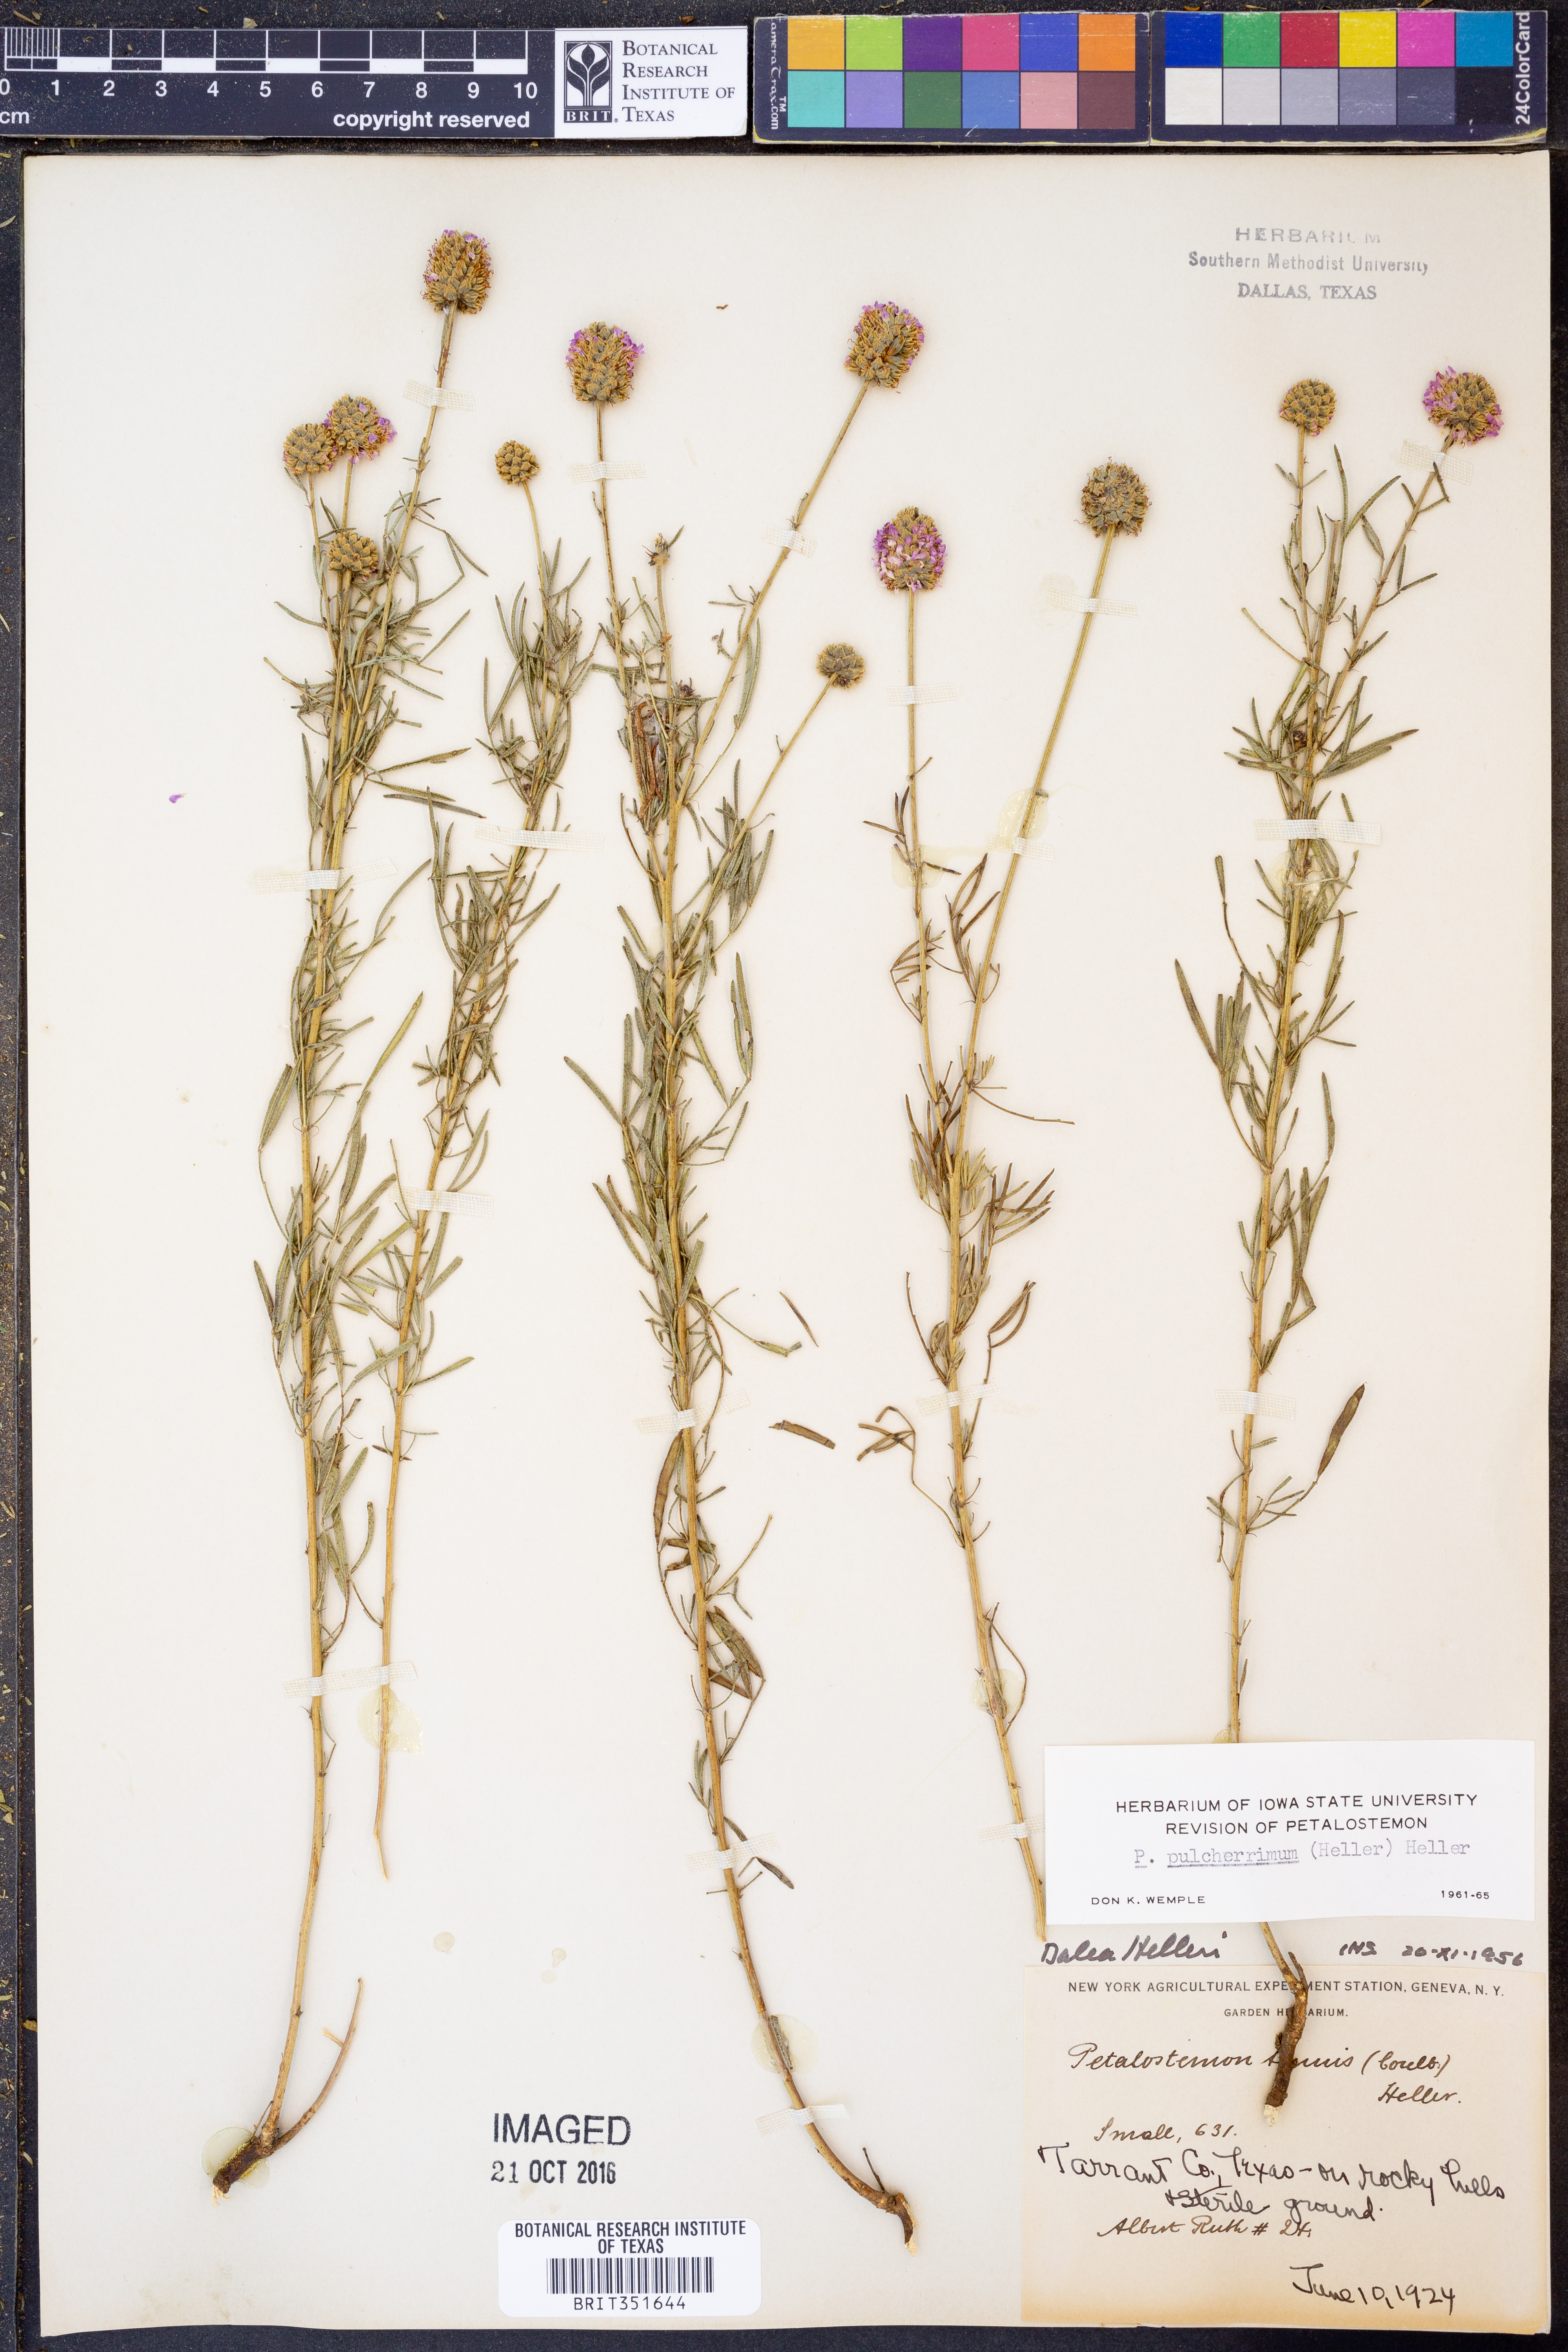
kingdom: Plantae
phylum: Tracheophyta
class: Magnoliopsida
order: Fabales
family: Fabaceae
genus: Dalea
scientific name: Dalea compacta
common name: Compact prairie-clover
